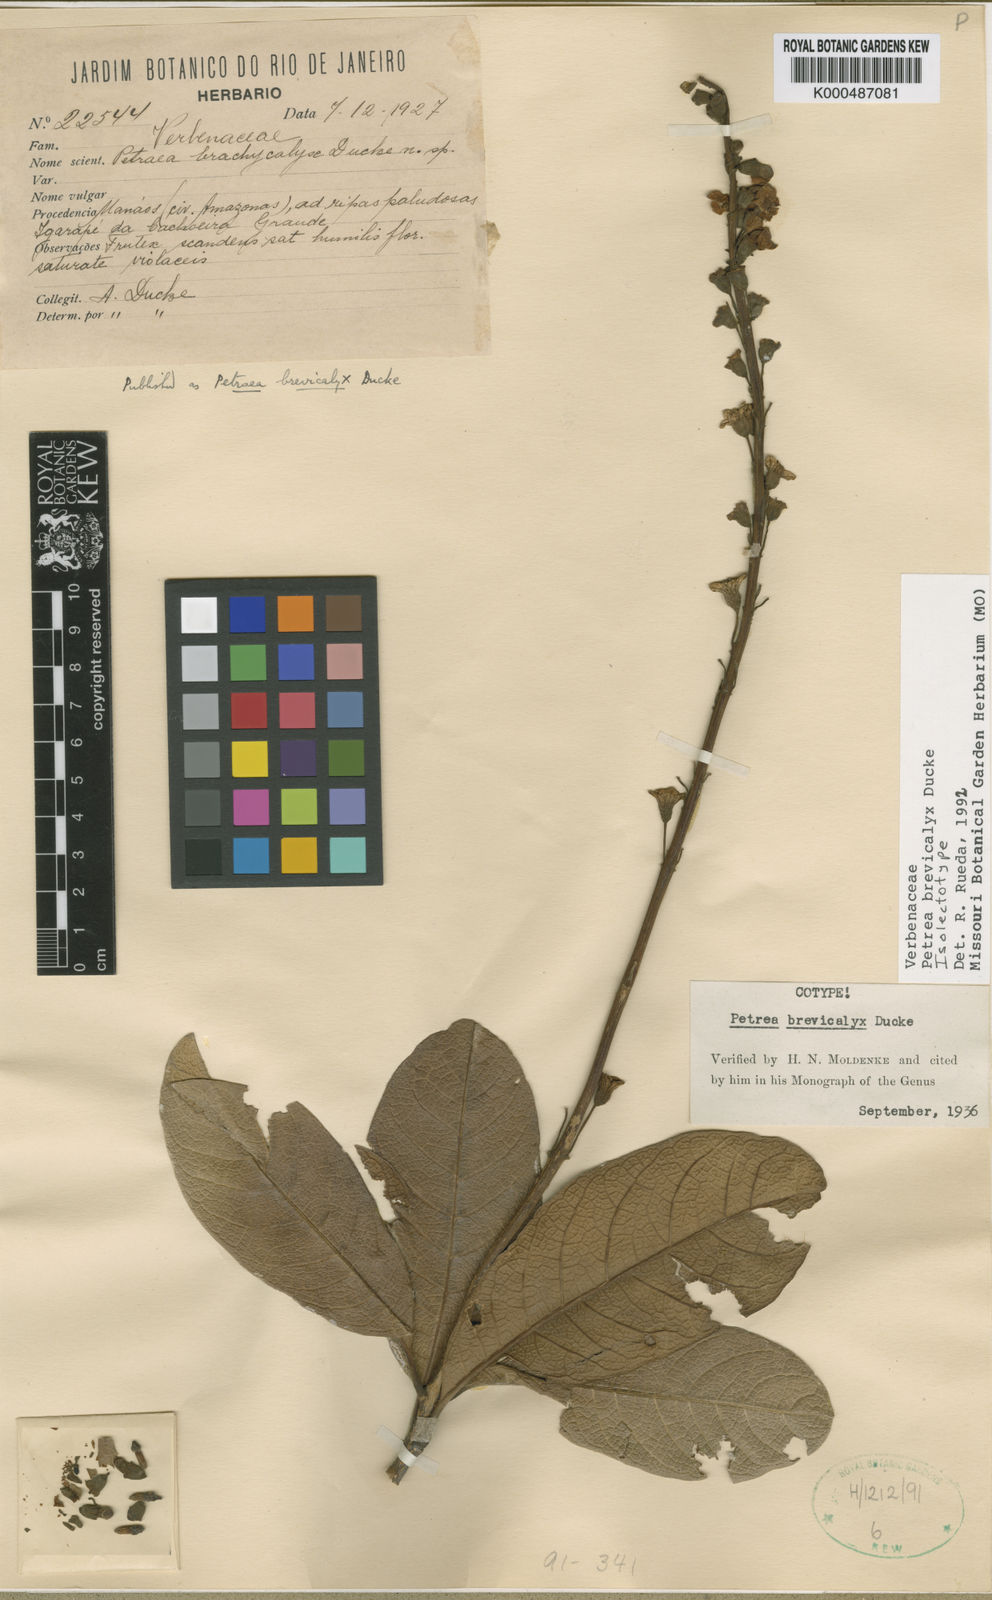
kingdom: Plantae
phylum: Tracheophyta
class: Magnoliopsida
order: Lamiales
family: Verbenaceae
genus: Petrea
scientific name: Petrea brevicalyx
